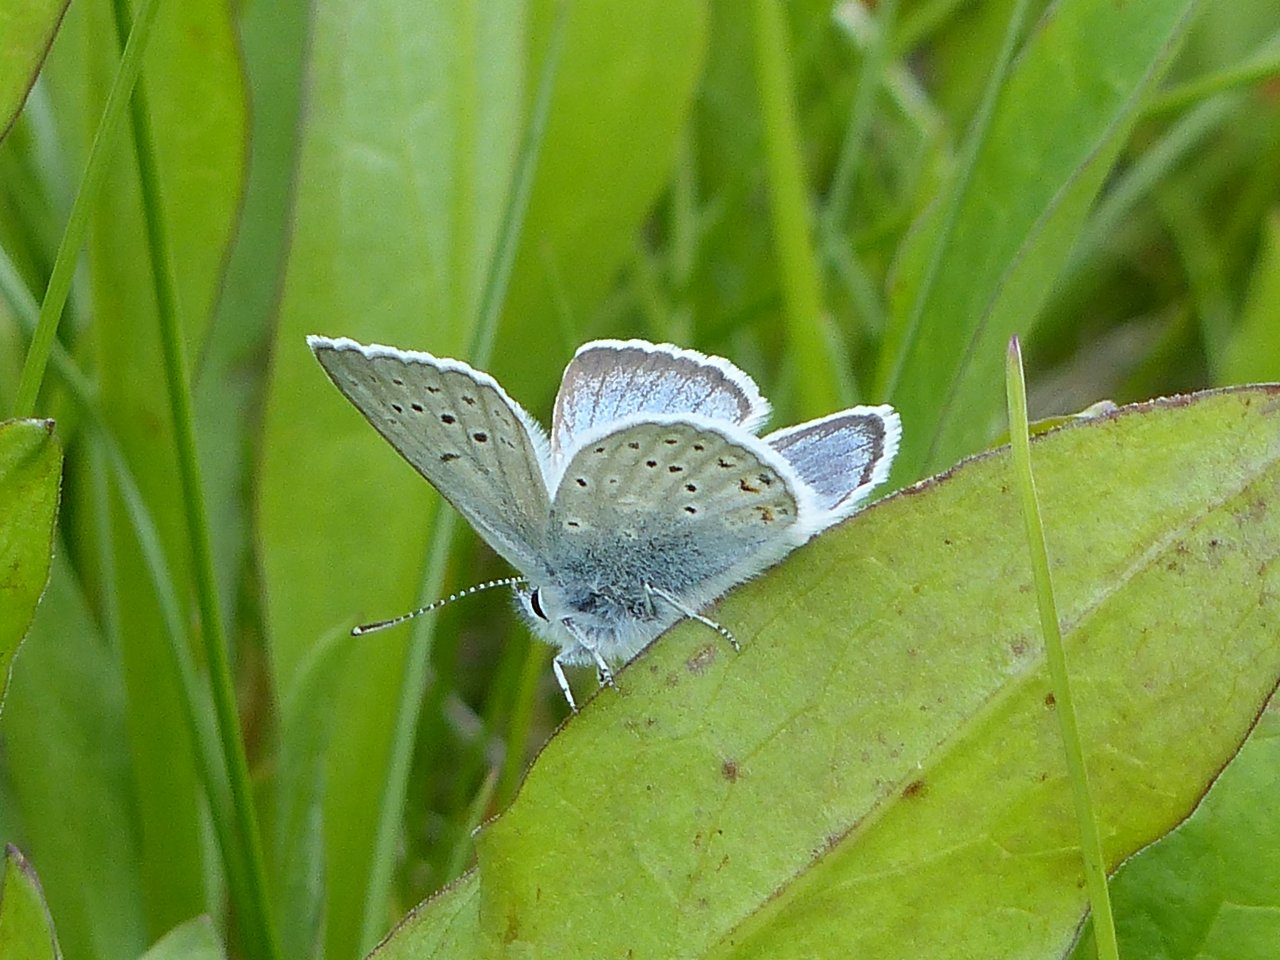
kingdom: Animalia
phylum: Arthropoda
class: Insecta
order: Lepidoptera
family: Lycaenidae
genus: Plebejus
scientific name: Plebejus saepiolus
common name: Greenish Blue
